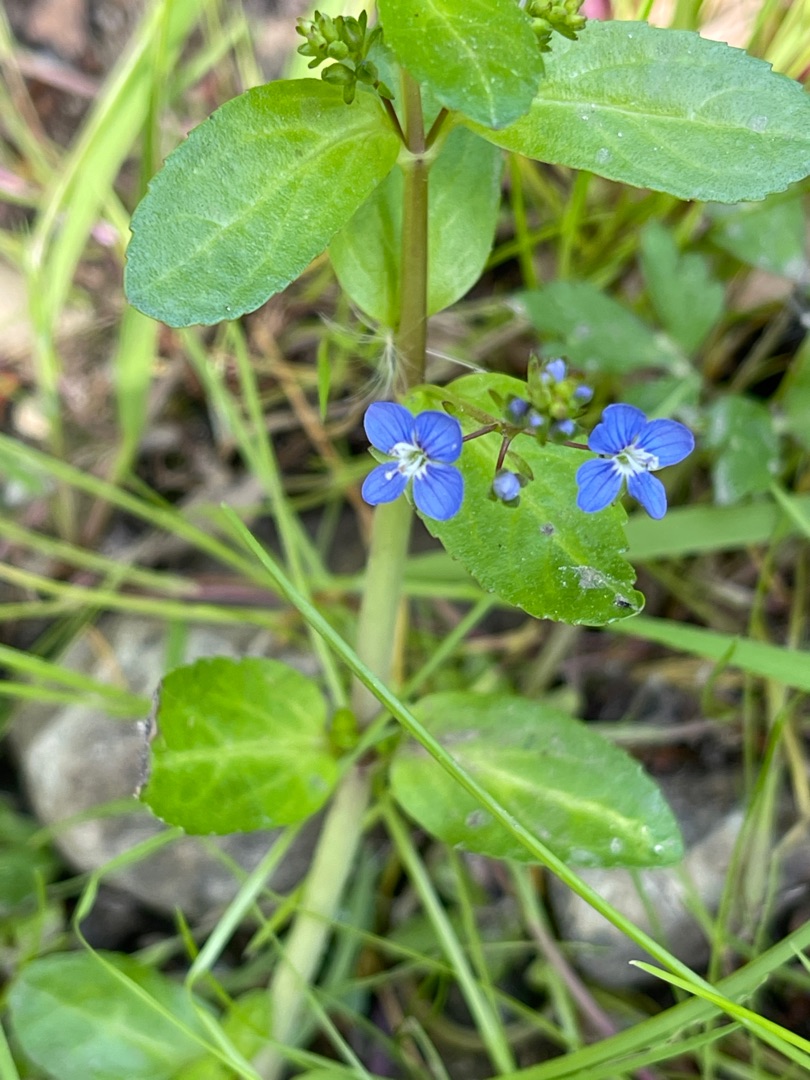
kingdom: Plantae
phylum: Tracheophyta
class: Magnoliopsida
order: Lamiales
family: Plantaginaceae
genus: Veronica
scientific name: Veronica beccabunga
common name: Tykbladet ærenpris
